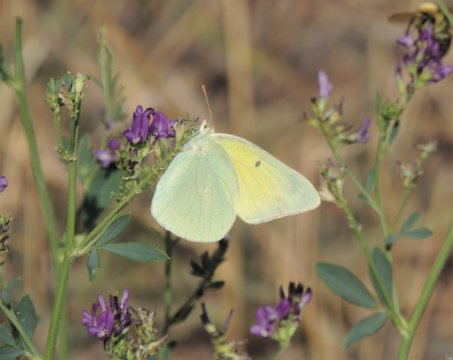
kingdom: Animalia
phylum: Arthropoda
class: Insecta
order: Lepidoptera
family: Pieridae
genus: Colias
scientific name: Colias alexandra
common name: Queen Alexandra's Sulphur
